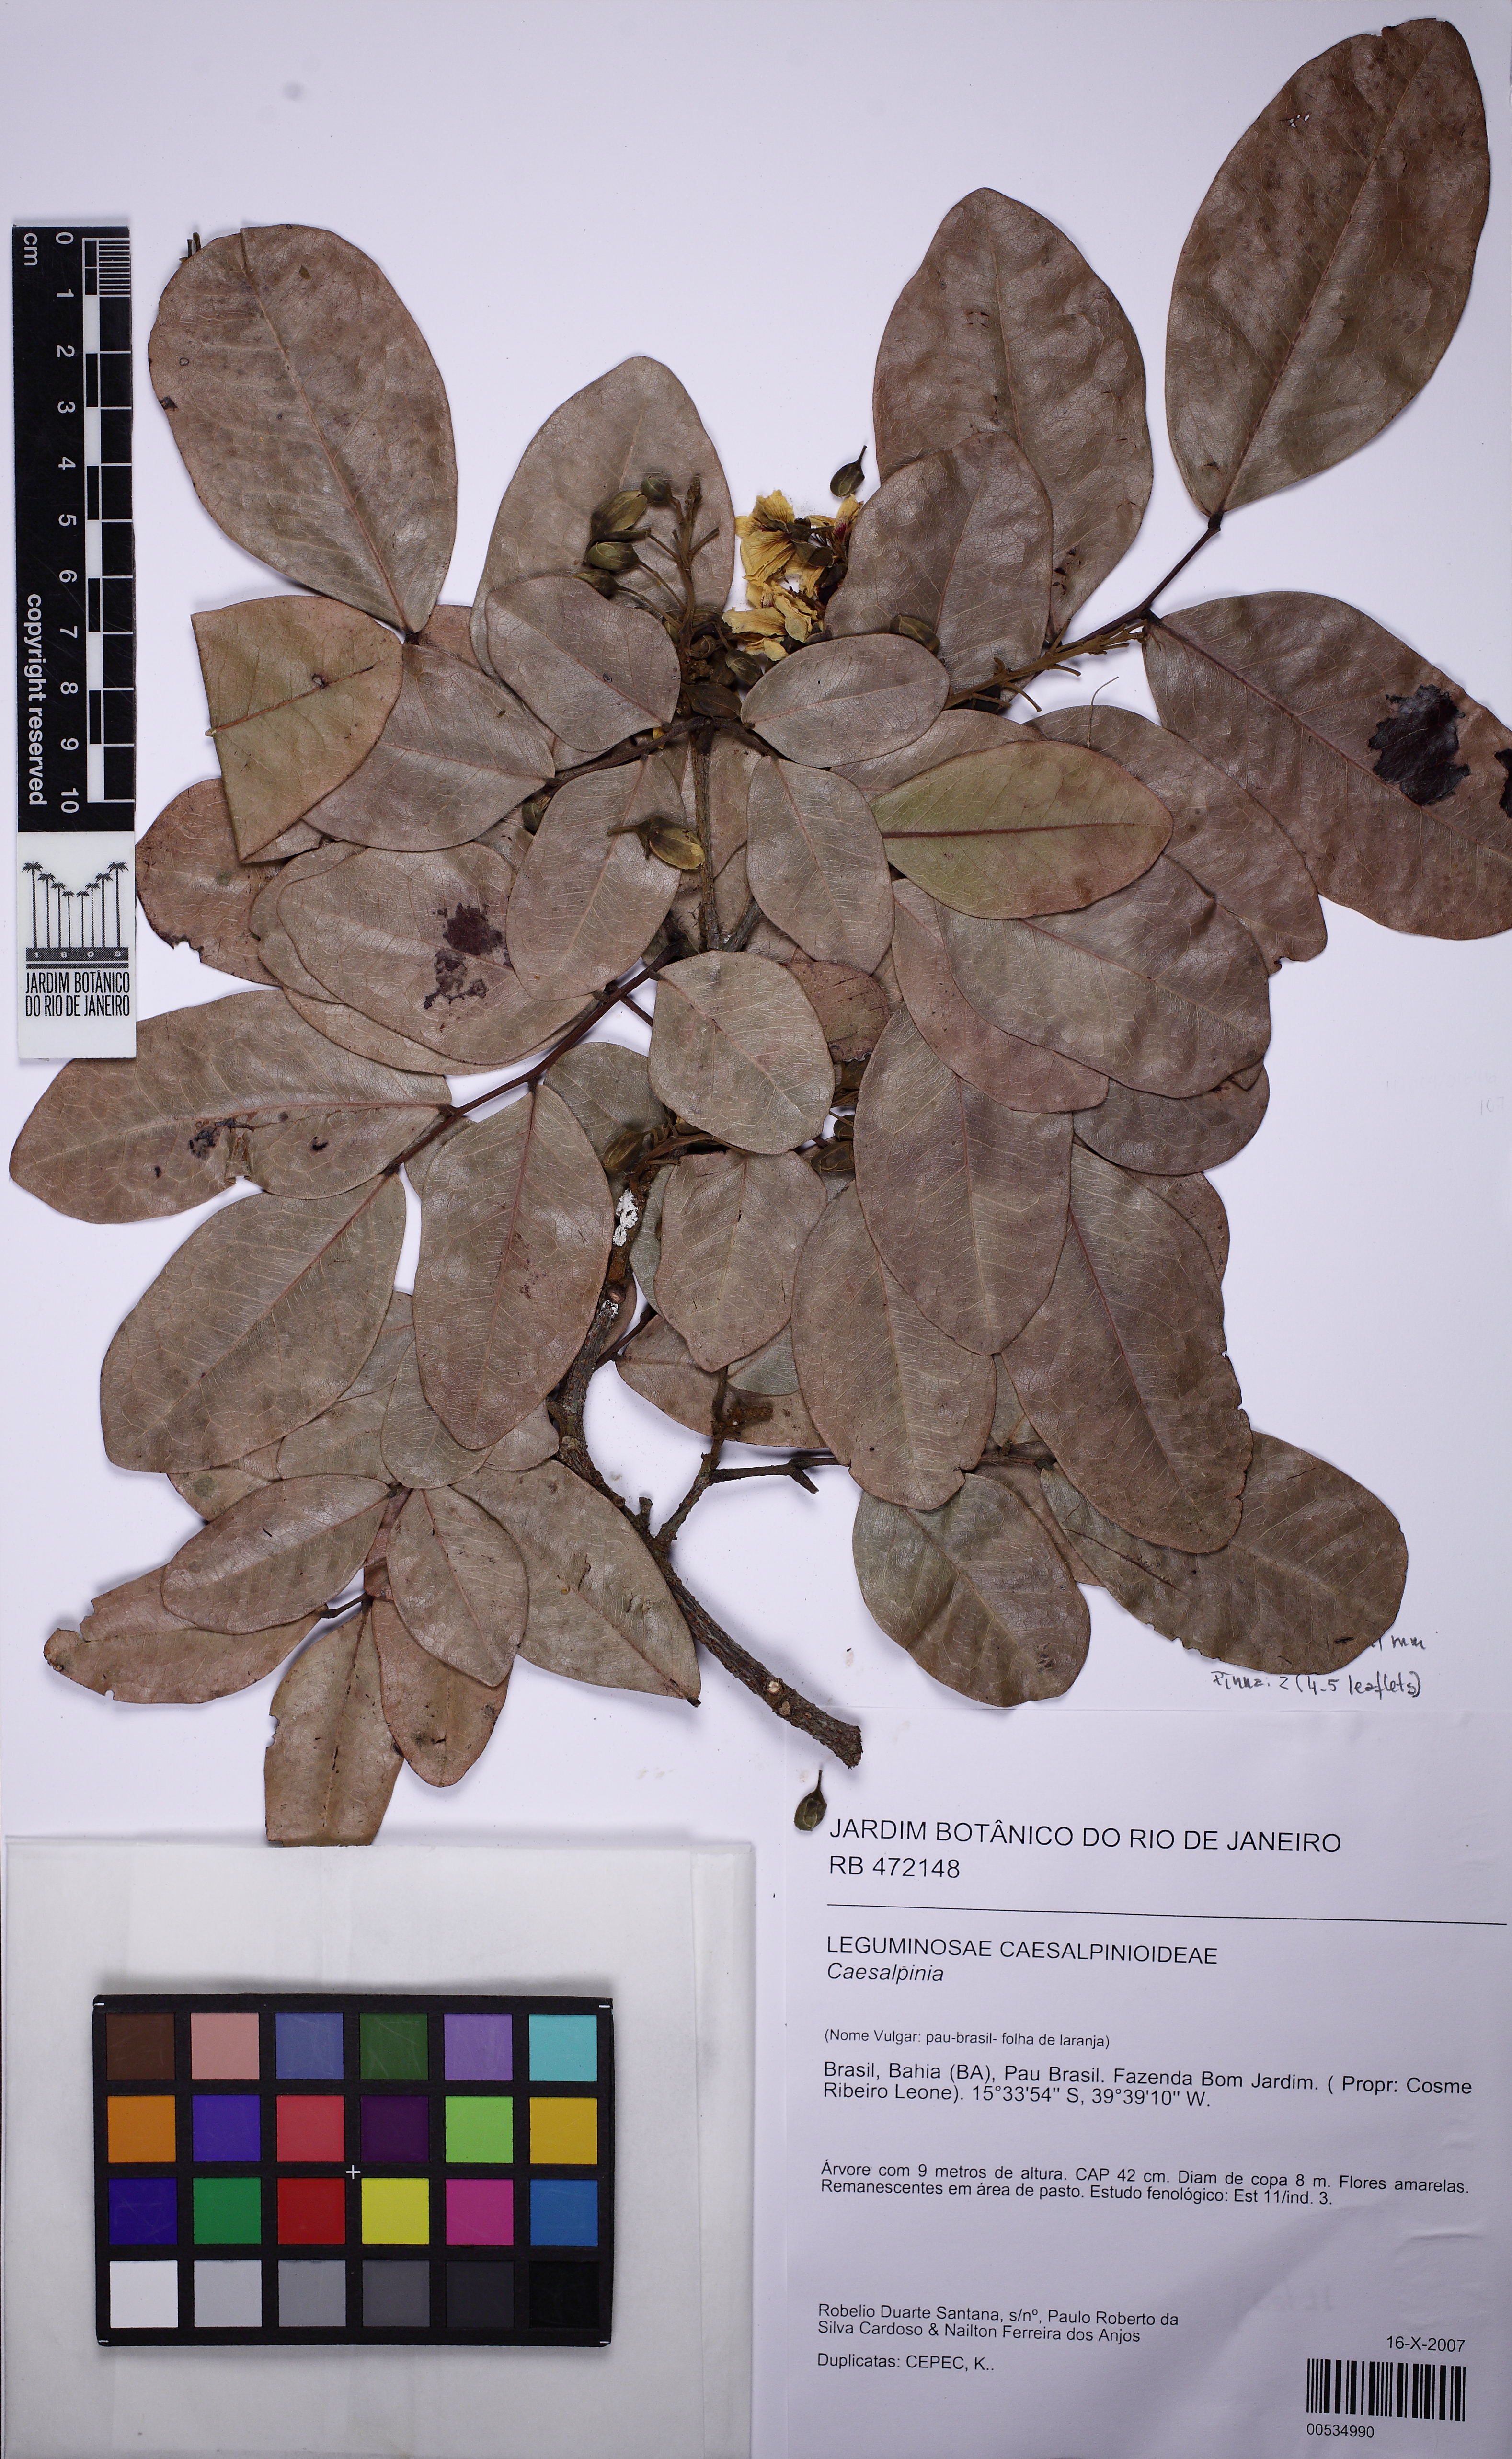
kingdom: Plantae
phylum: Tracheophyta
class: Magnoliopsida
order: Fabales
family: Fabaceae
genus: Paubrasilia
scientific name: Paubrasilia echinata
